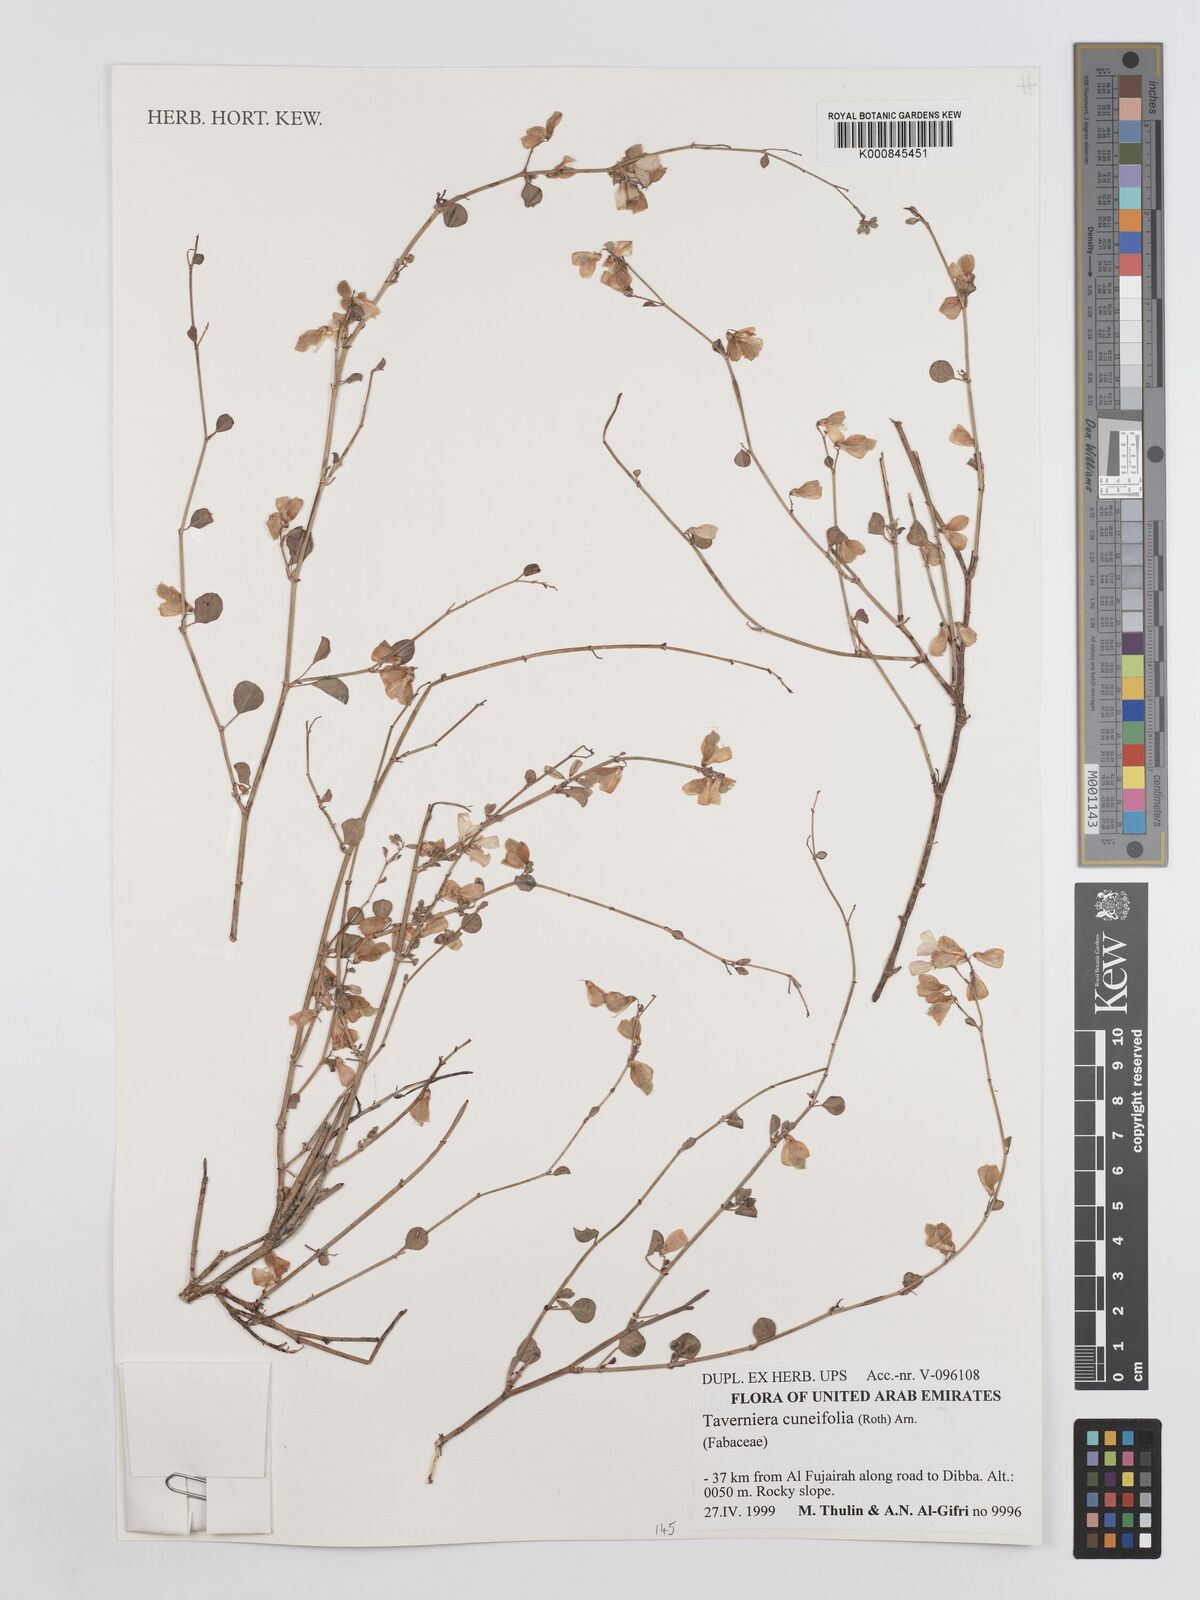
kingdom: Plantae
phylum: Tracheophyta
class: Magnoliopsida
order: Fabales
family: Fabaceae
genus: Taverniera
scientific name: Taverniera
